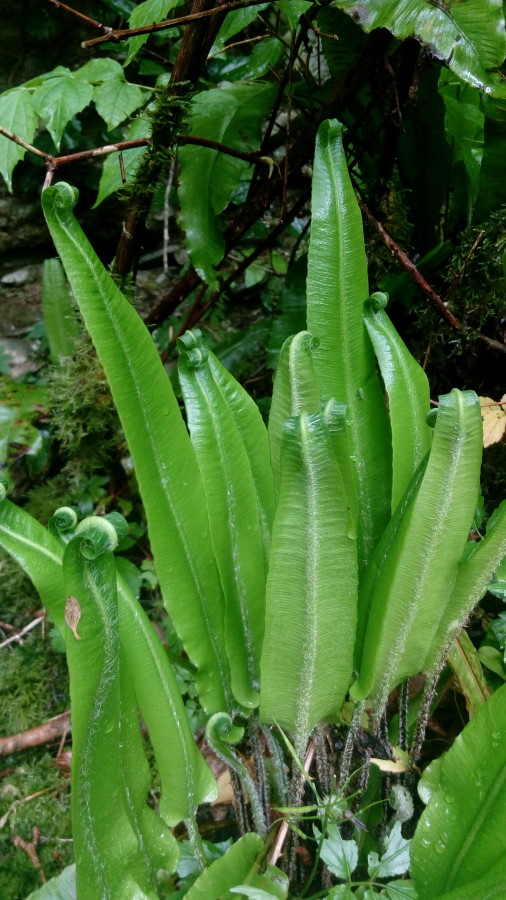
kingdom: Plantae
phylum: Tracheophyta
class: Polypodiopsida
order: Polypodiales
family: Aspleniaceae
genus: Asplenium
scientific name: Asplenium scolopendrium
